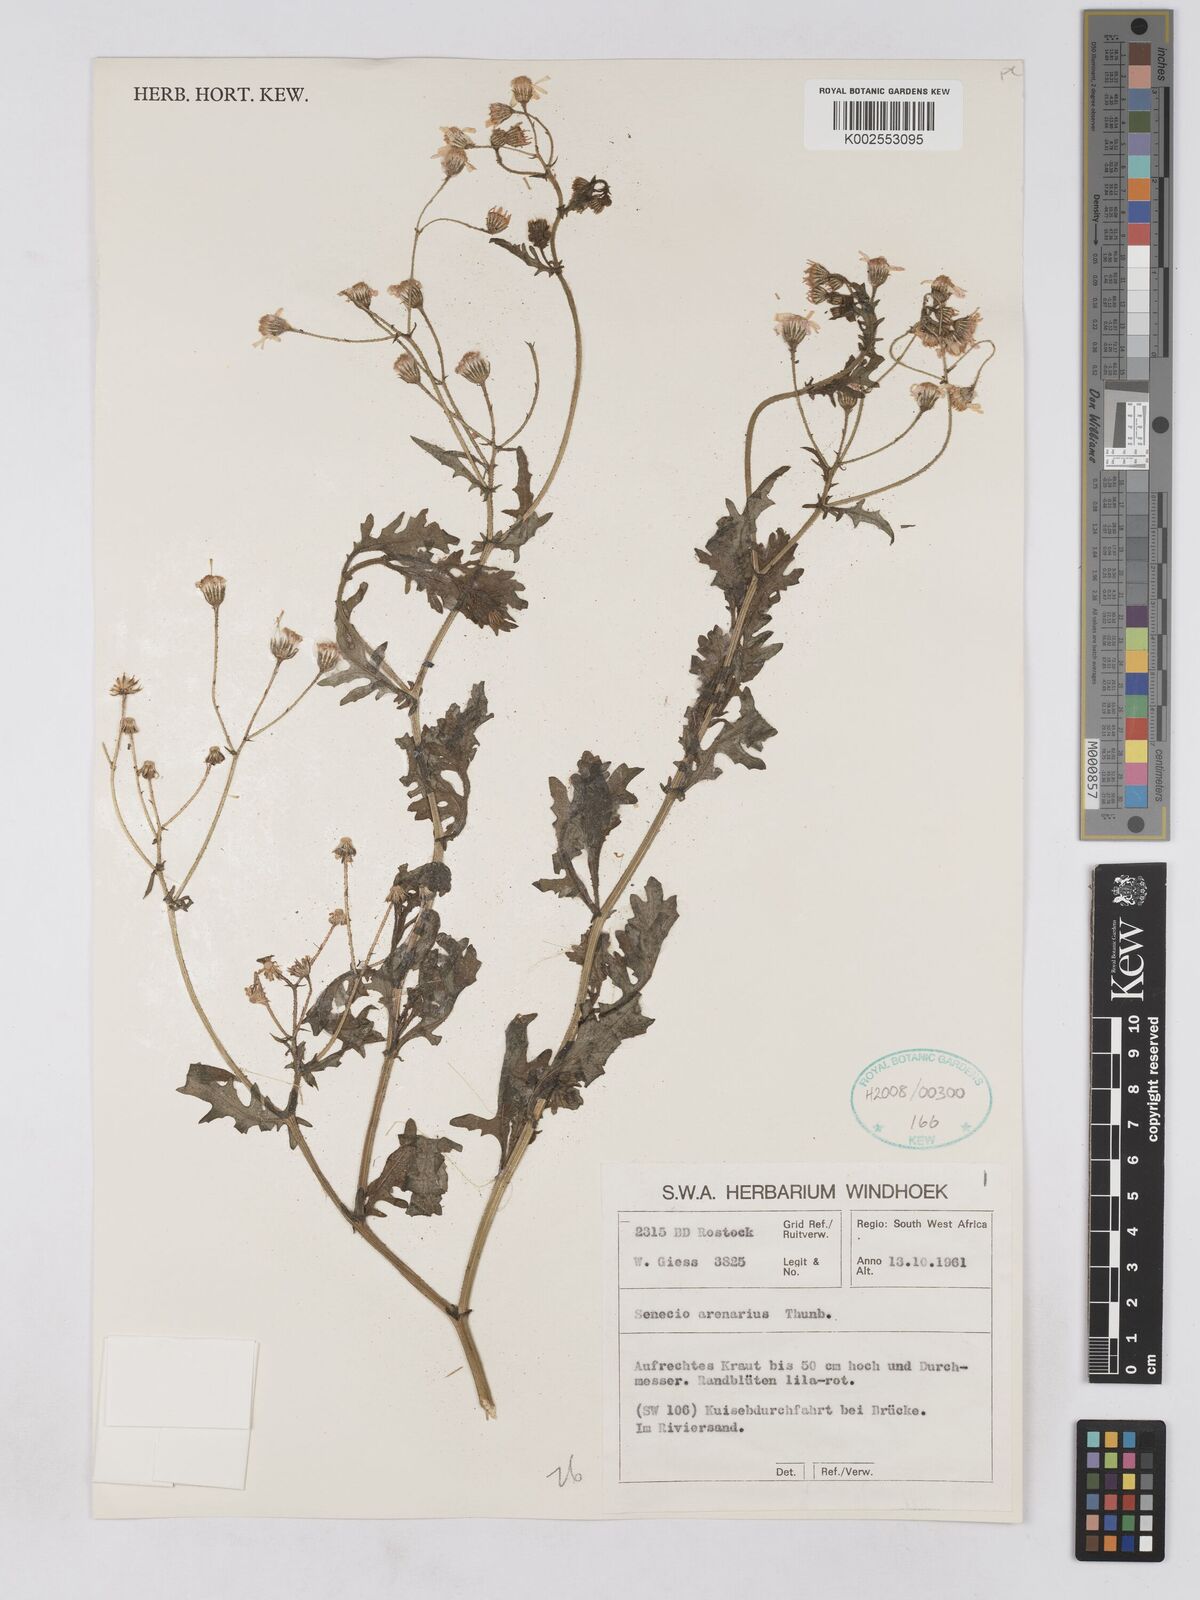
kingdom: Plantae
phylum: Tracheophyta
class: Magnoliopsida
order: Asterales
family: Asteraceae
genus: Senecio
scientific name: Senecio arenarius
